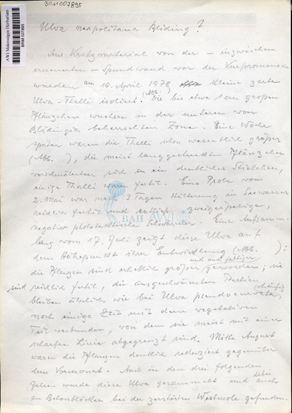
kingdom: Plantae
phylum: Chlorophyta
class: Ulvophyceae
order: Ulvales
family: Ulvaceae
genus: Ulva
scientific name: Ulva tenera
